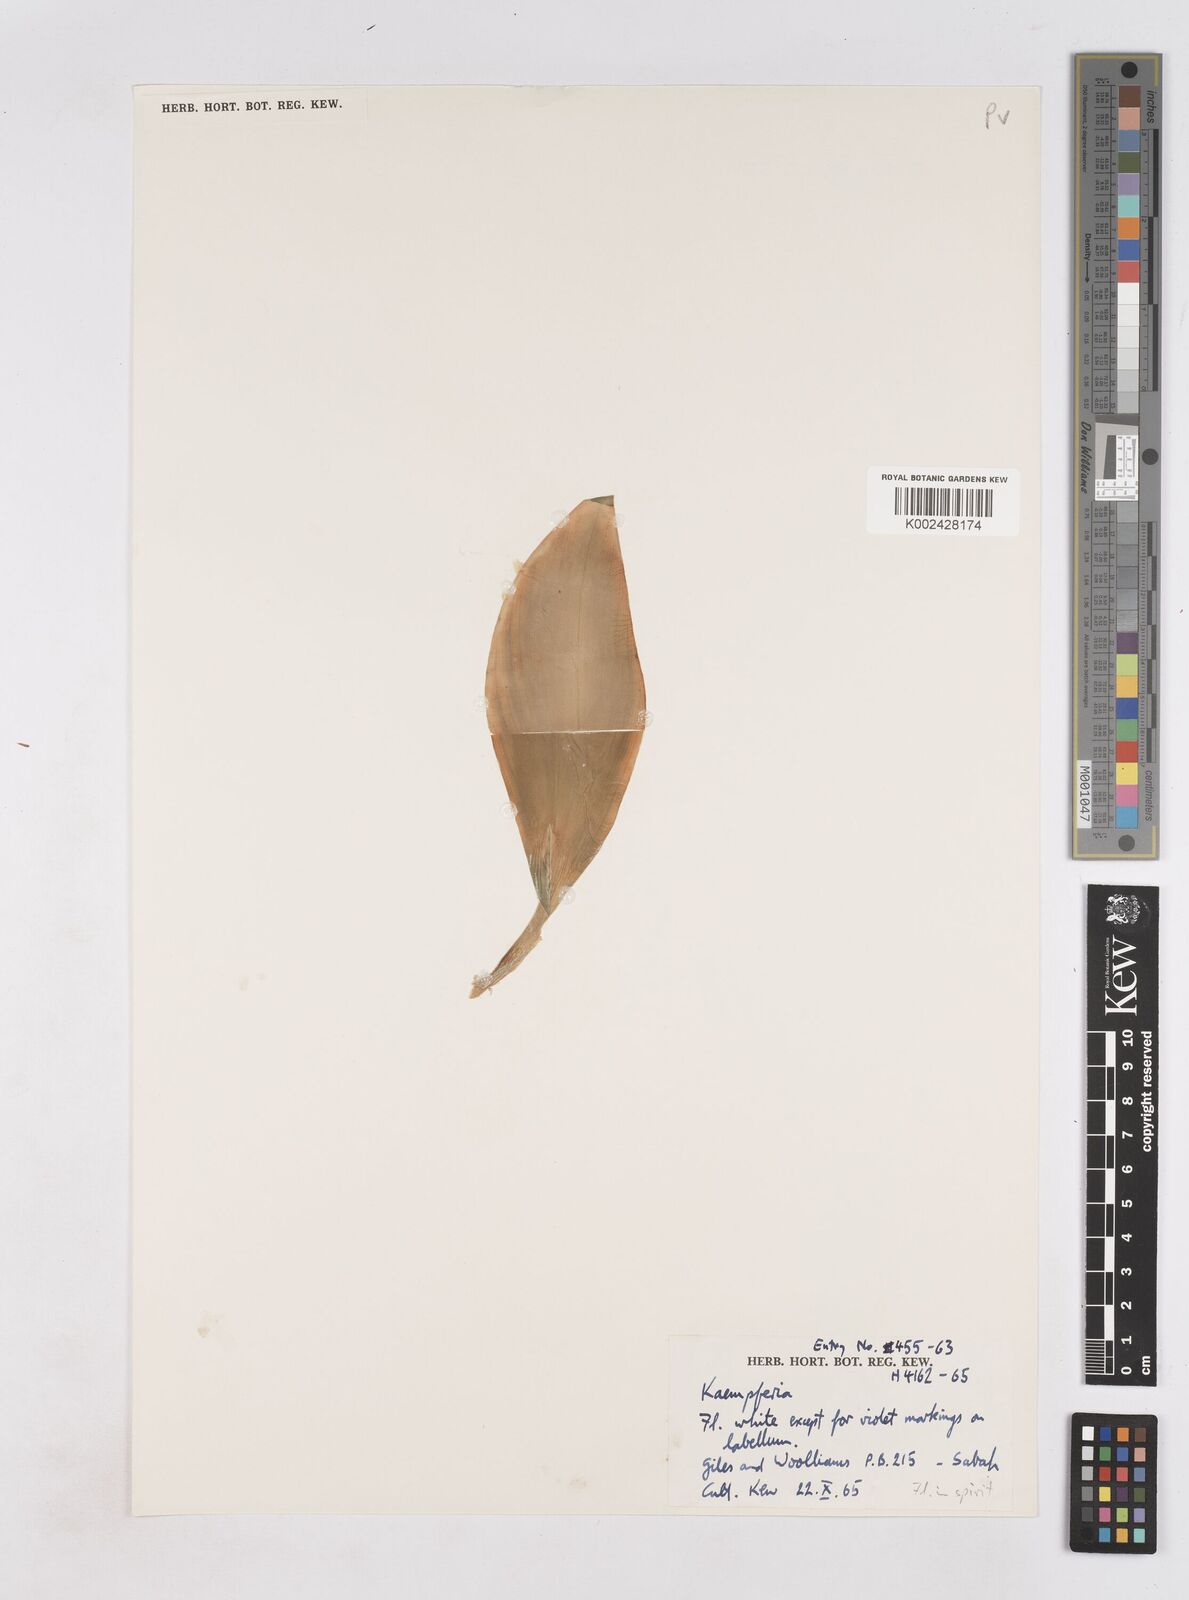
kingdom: Plantae
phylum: Tracheophyta
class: Liliopsida
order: Zingiberales
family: Zingiberaceae
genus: Kaempferia
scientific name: Kaempferia
